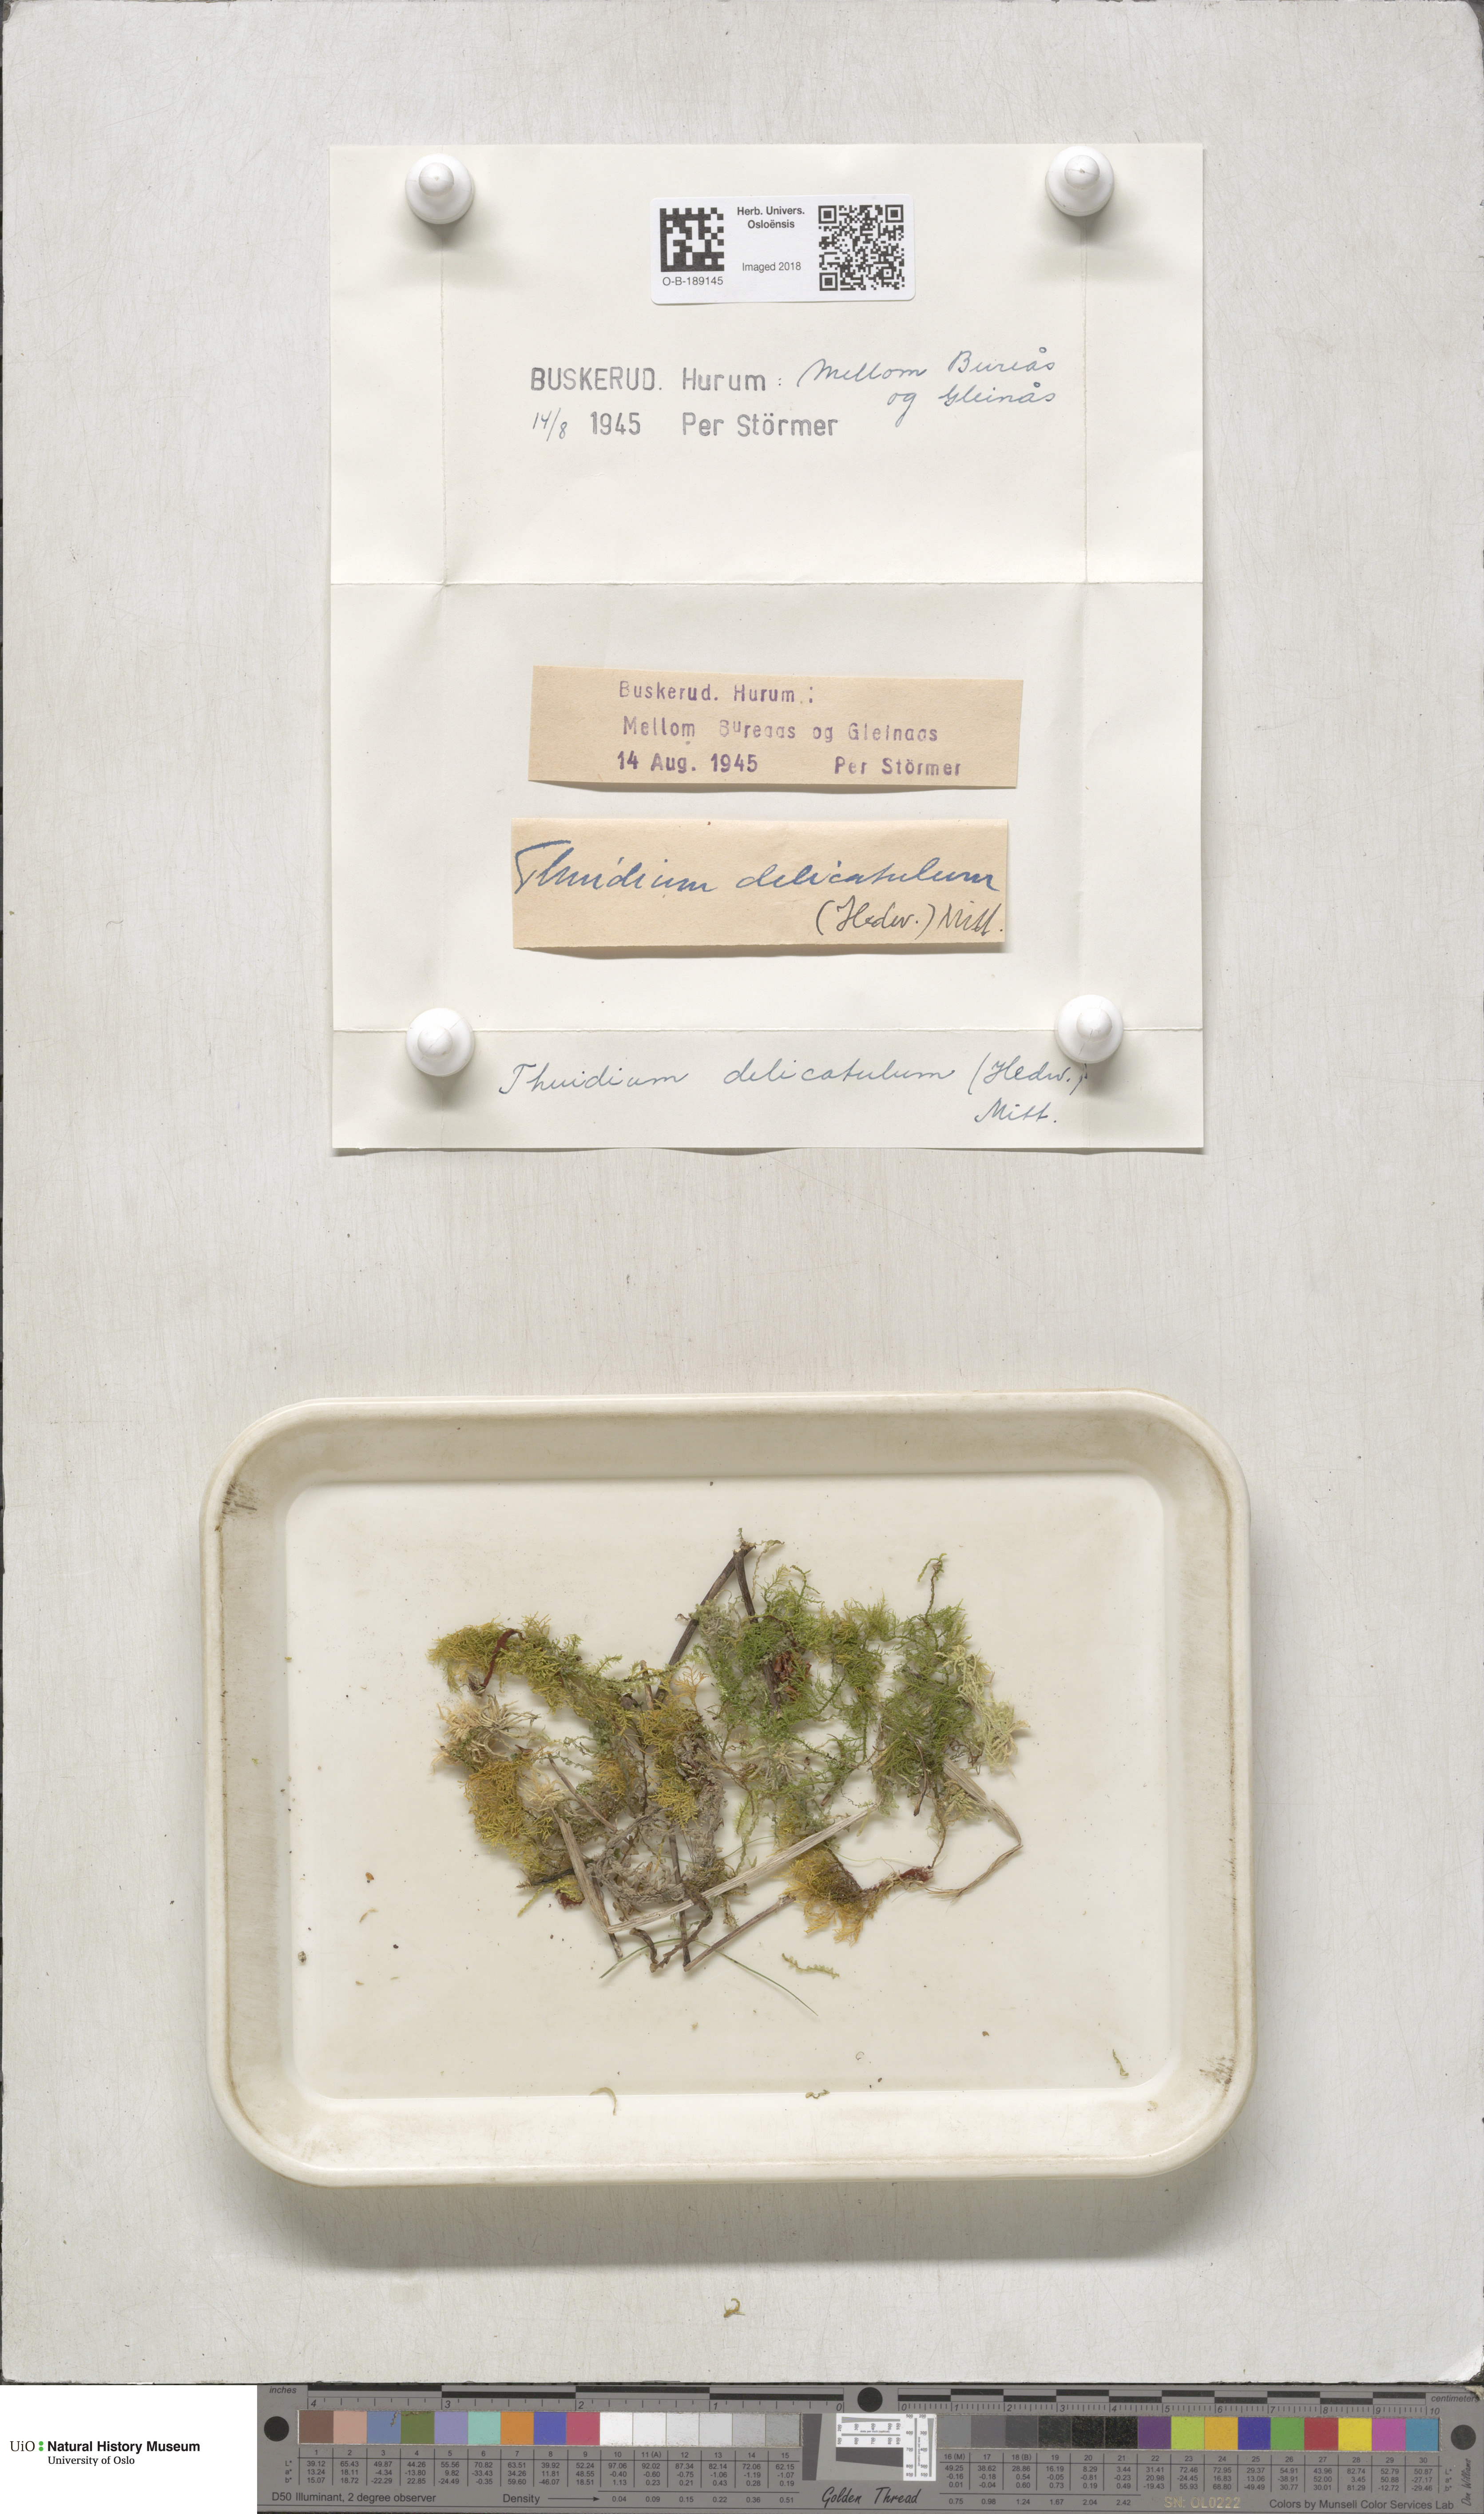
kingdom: Plantae
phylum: Bryophyta
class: Bryopsida
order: Hypnales
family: Thuidiaceae
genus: Thuidium
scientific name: Thuidium delicatulum
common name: Delicate fern moss
